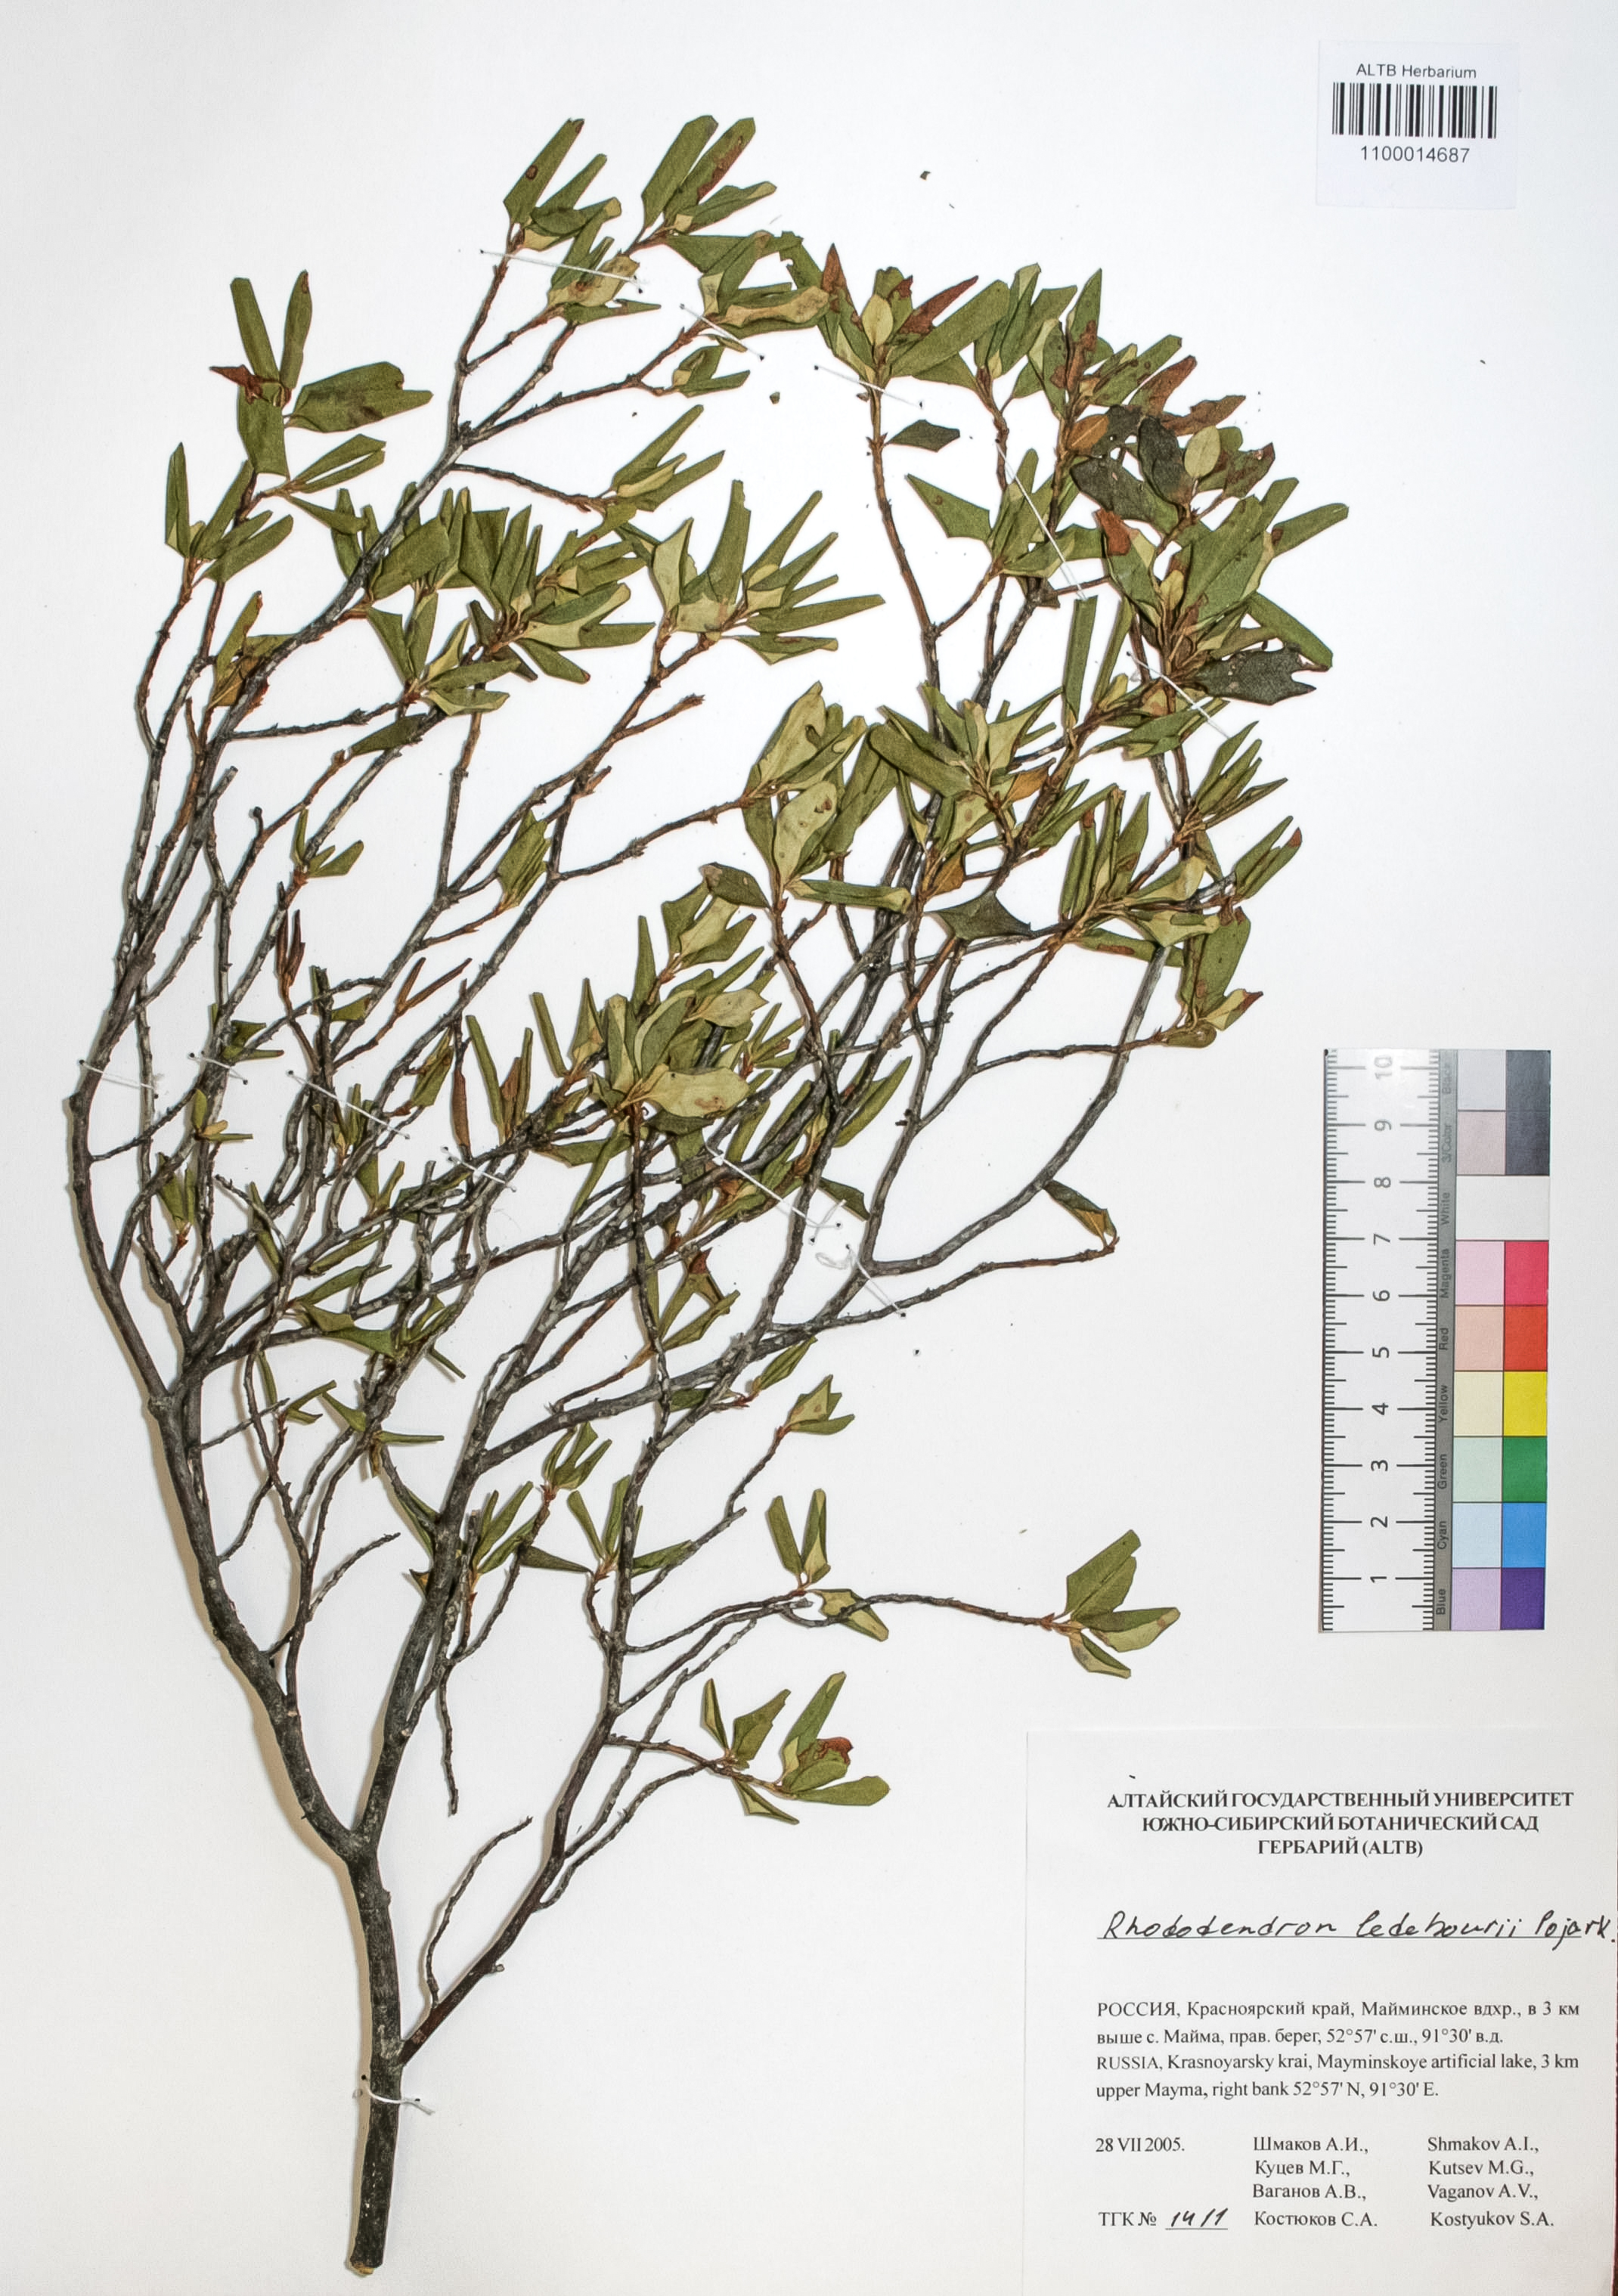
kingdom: Plantae
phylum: Tracheophyta
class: Magnoliopsida
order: Ericales
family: Ericaceae
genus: Rhododendron
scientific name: Rhododendron dauricum
